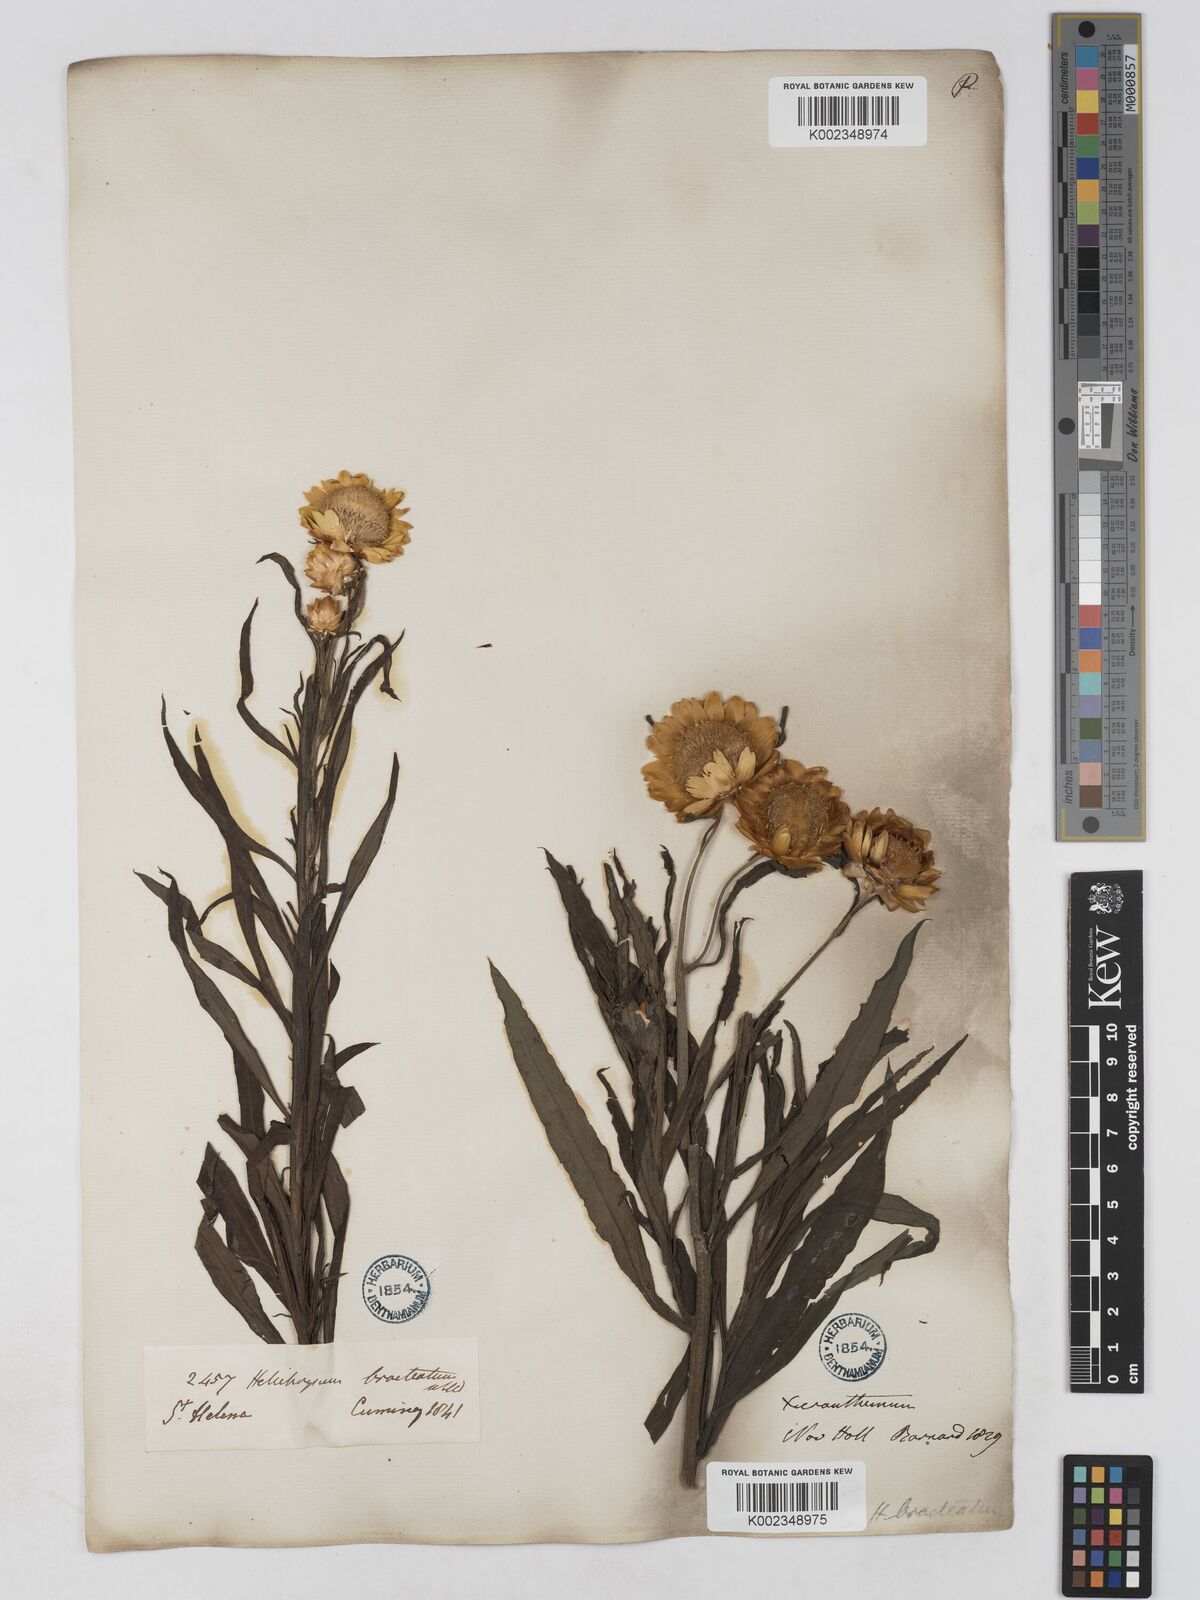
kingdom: Plantae
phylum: Tracheophyta
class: Magnoliopsida
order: Asterales
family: Asteraceae
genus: Xerochrysum
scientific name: Xerochrysum bracteatum
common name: Bracted strawflower
